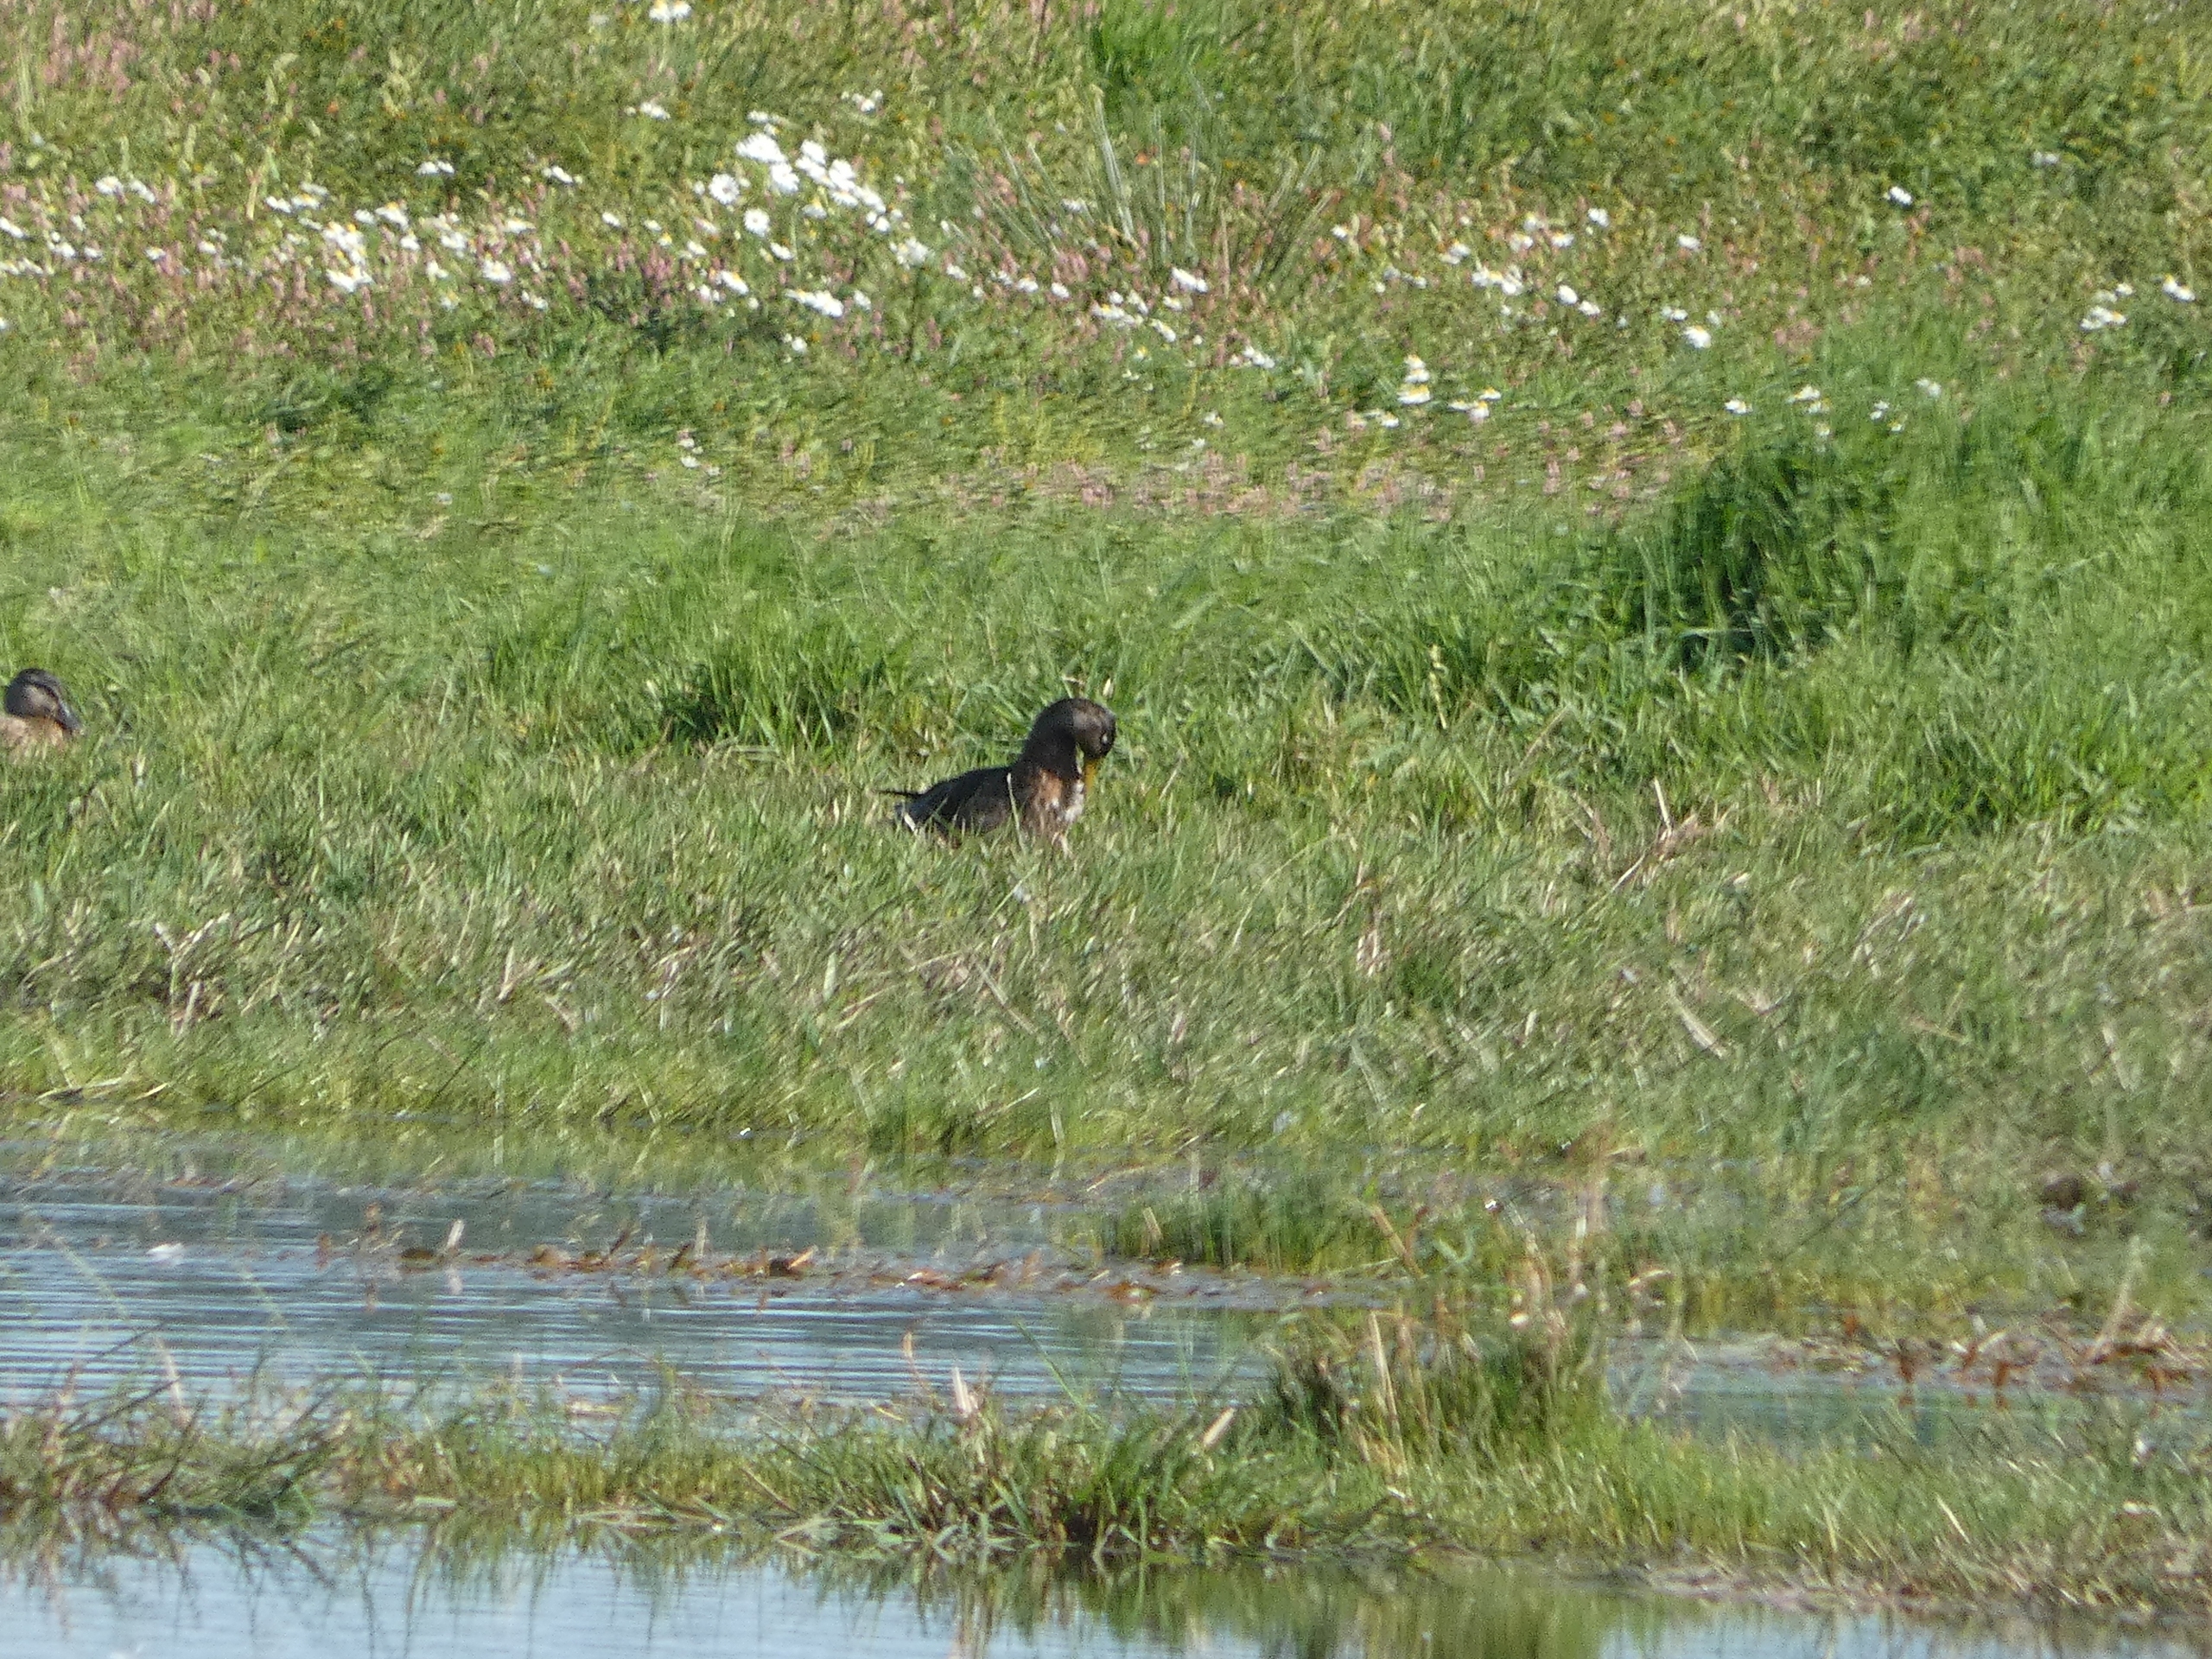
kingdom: Animalia
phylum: Chordata
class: Aves
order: Anseriformes
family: Anatidae
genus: Anas
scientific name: Anas platyrhynchos
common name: Gråand
